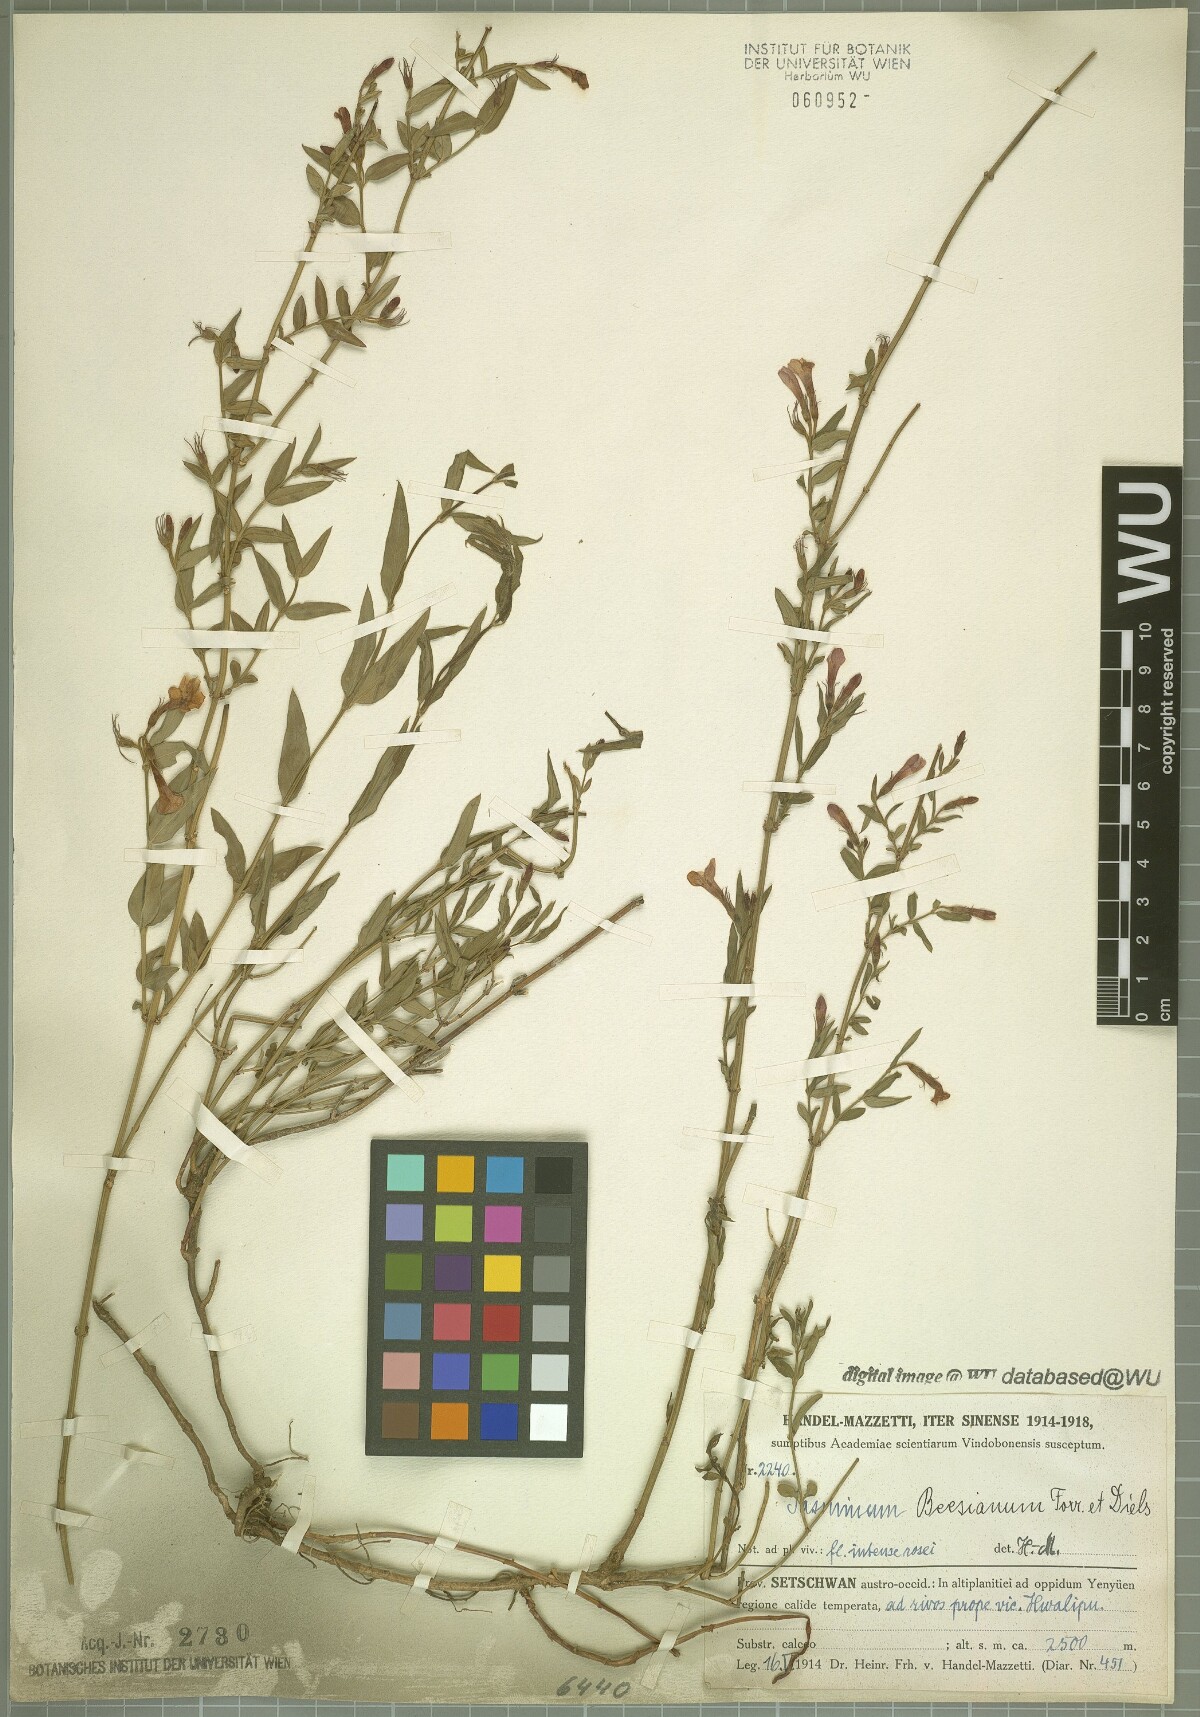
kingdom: Plantae
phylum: Tracheophyta
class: Magnoliopsida
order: Lamiales
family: Oleaceae
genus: Jasminum
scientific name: Jasminum beesianum
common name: Red jasmine
